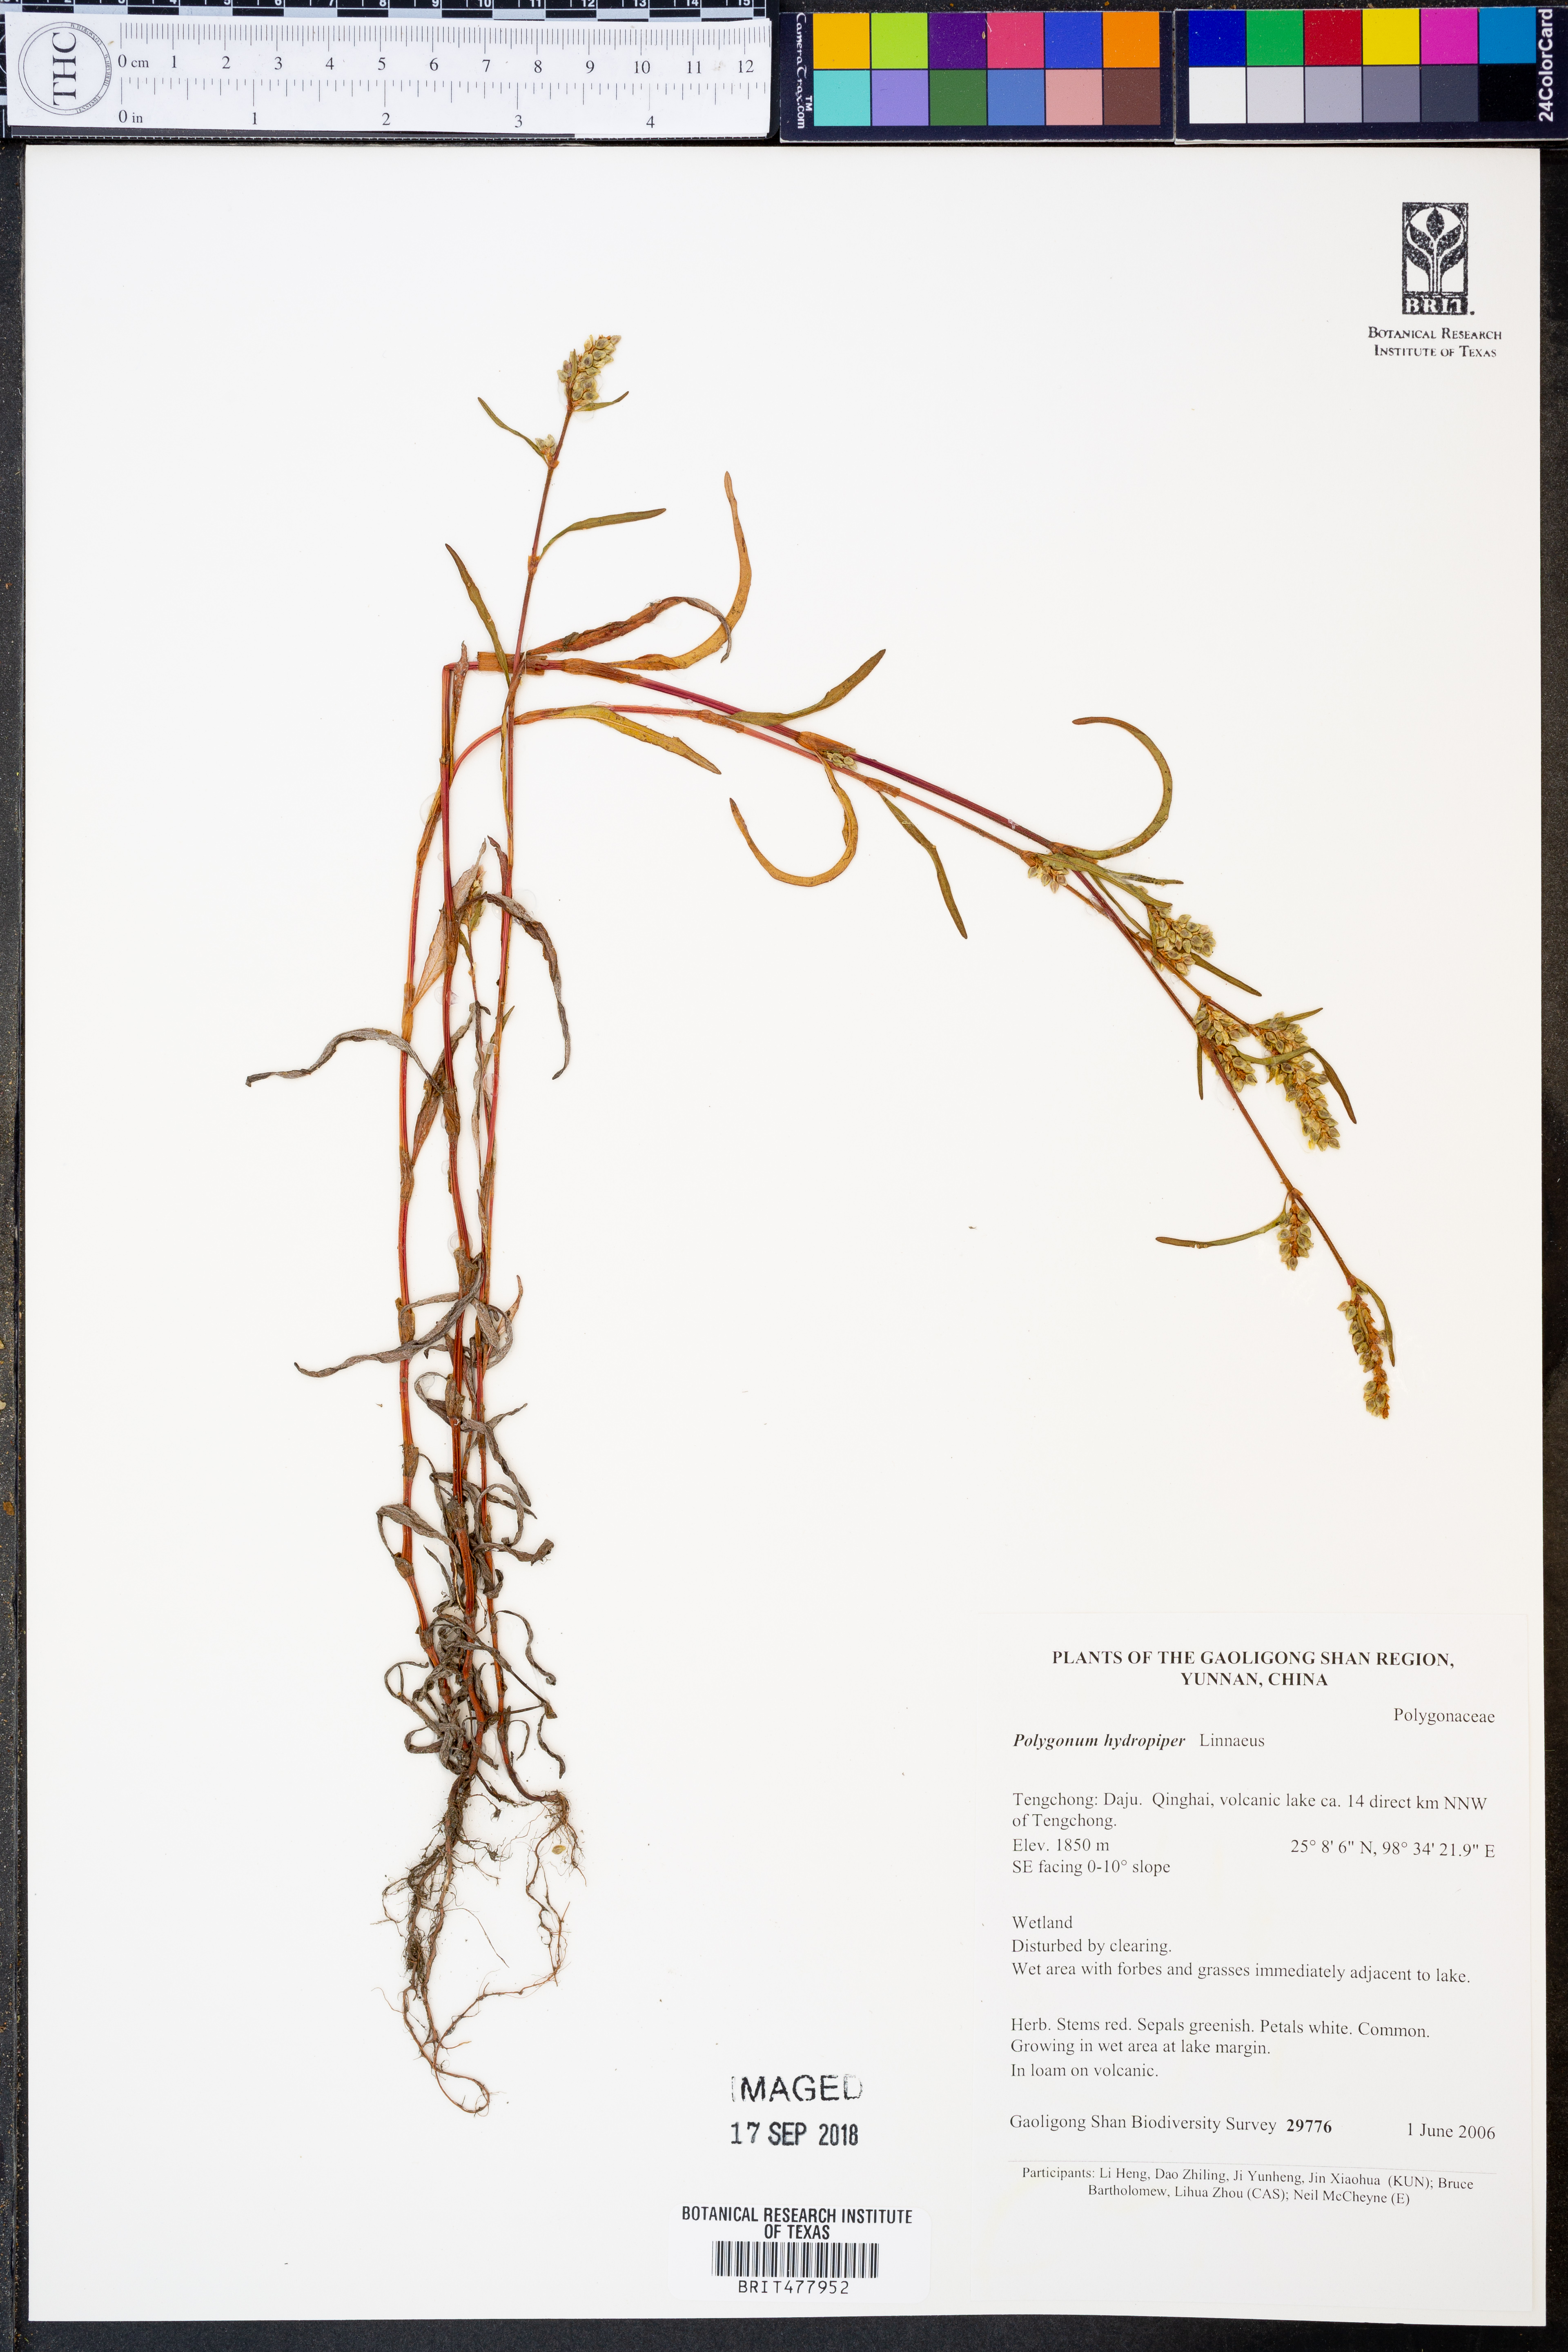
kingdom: Plantae
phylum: Tracheophyta
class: Magnoliopsida
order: Caryophyllales
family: Polygonaceae
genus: Persicaria
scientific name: Persicaria hydropiper
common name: Water-pepper
